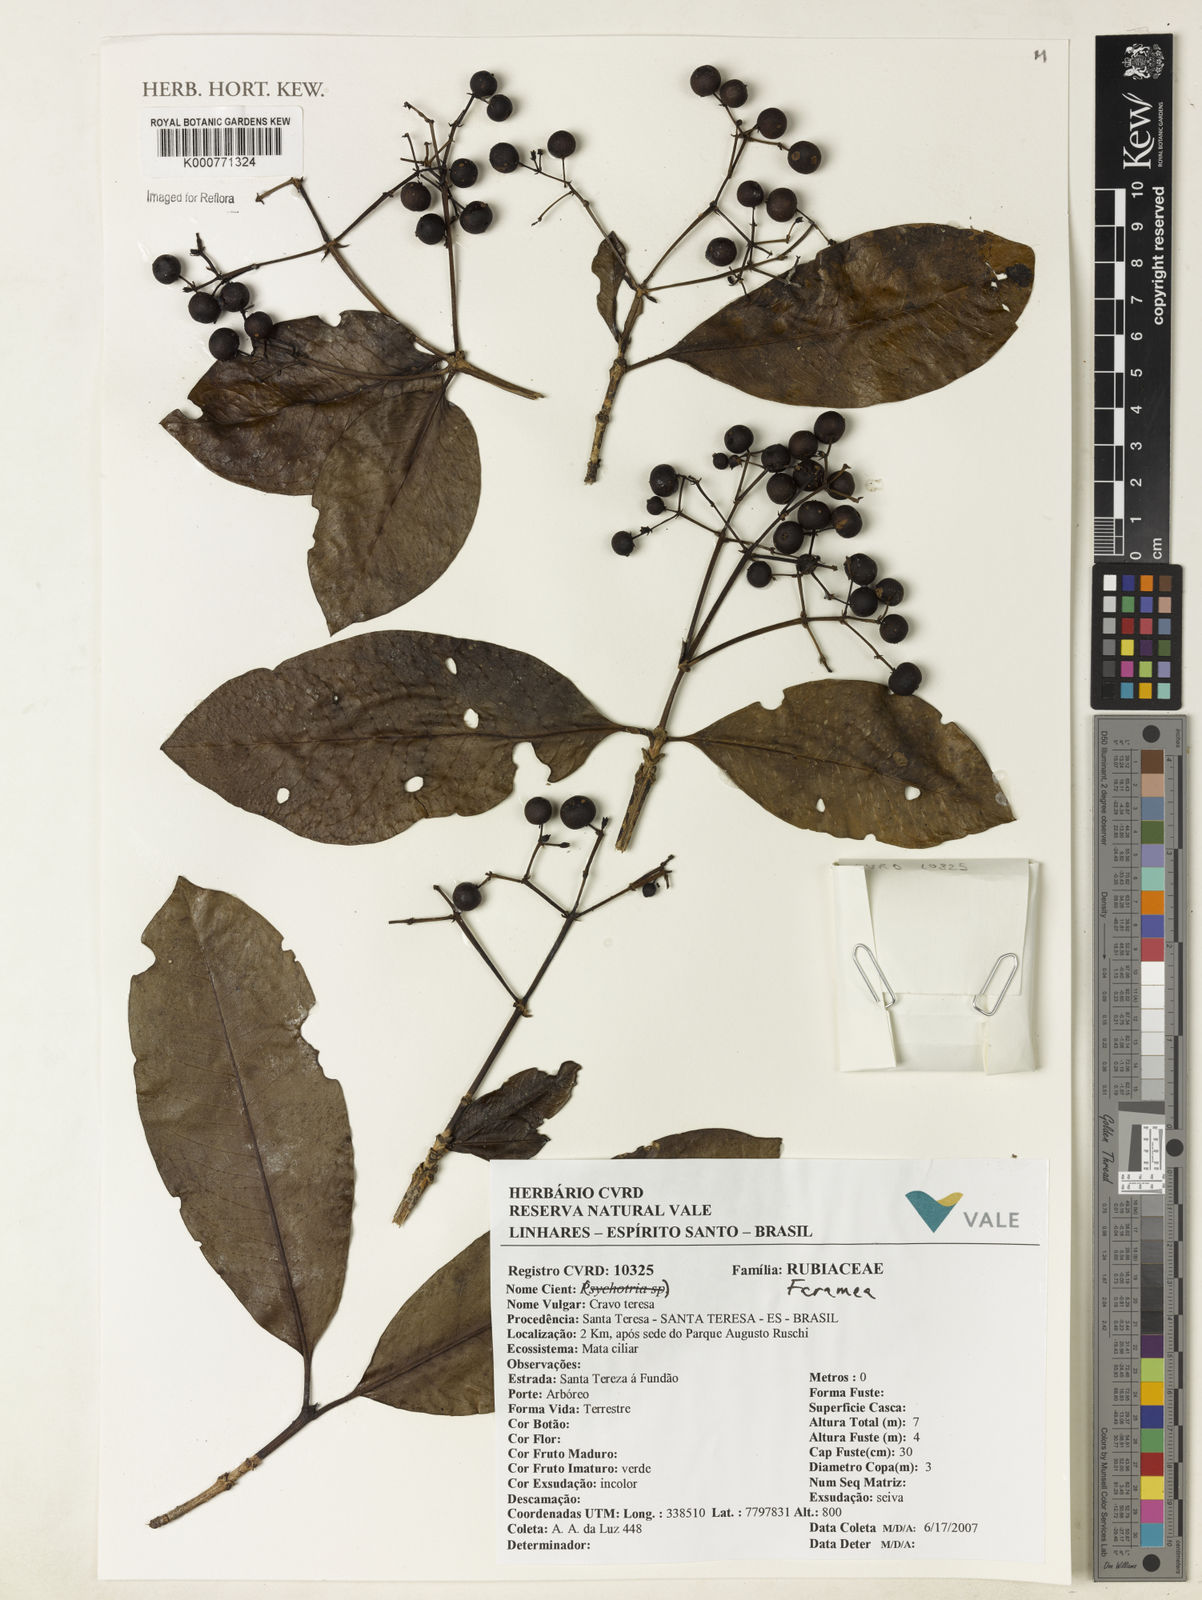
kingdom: Plantae
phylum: Tracheophyta
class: Magnoliopsida
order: Gentianales
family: Rubiaceae
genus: Faramea
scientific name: Faramea
